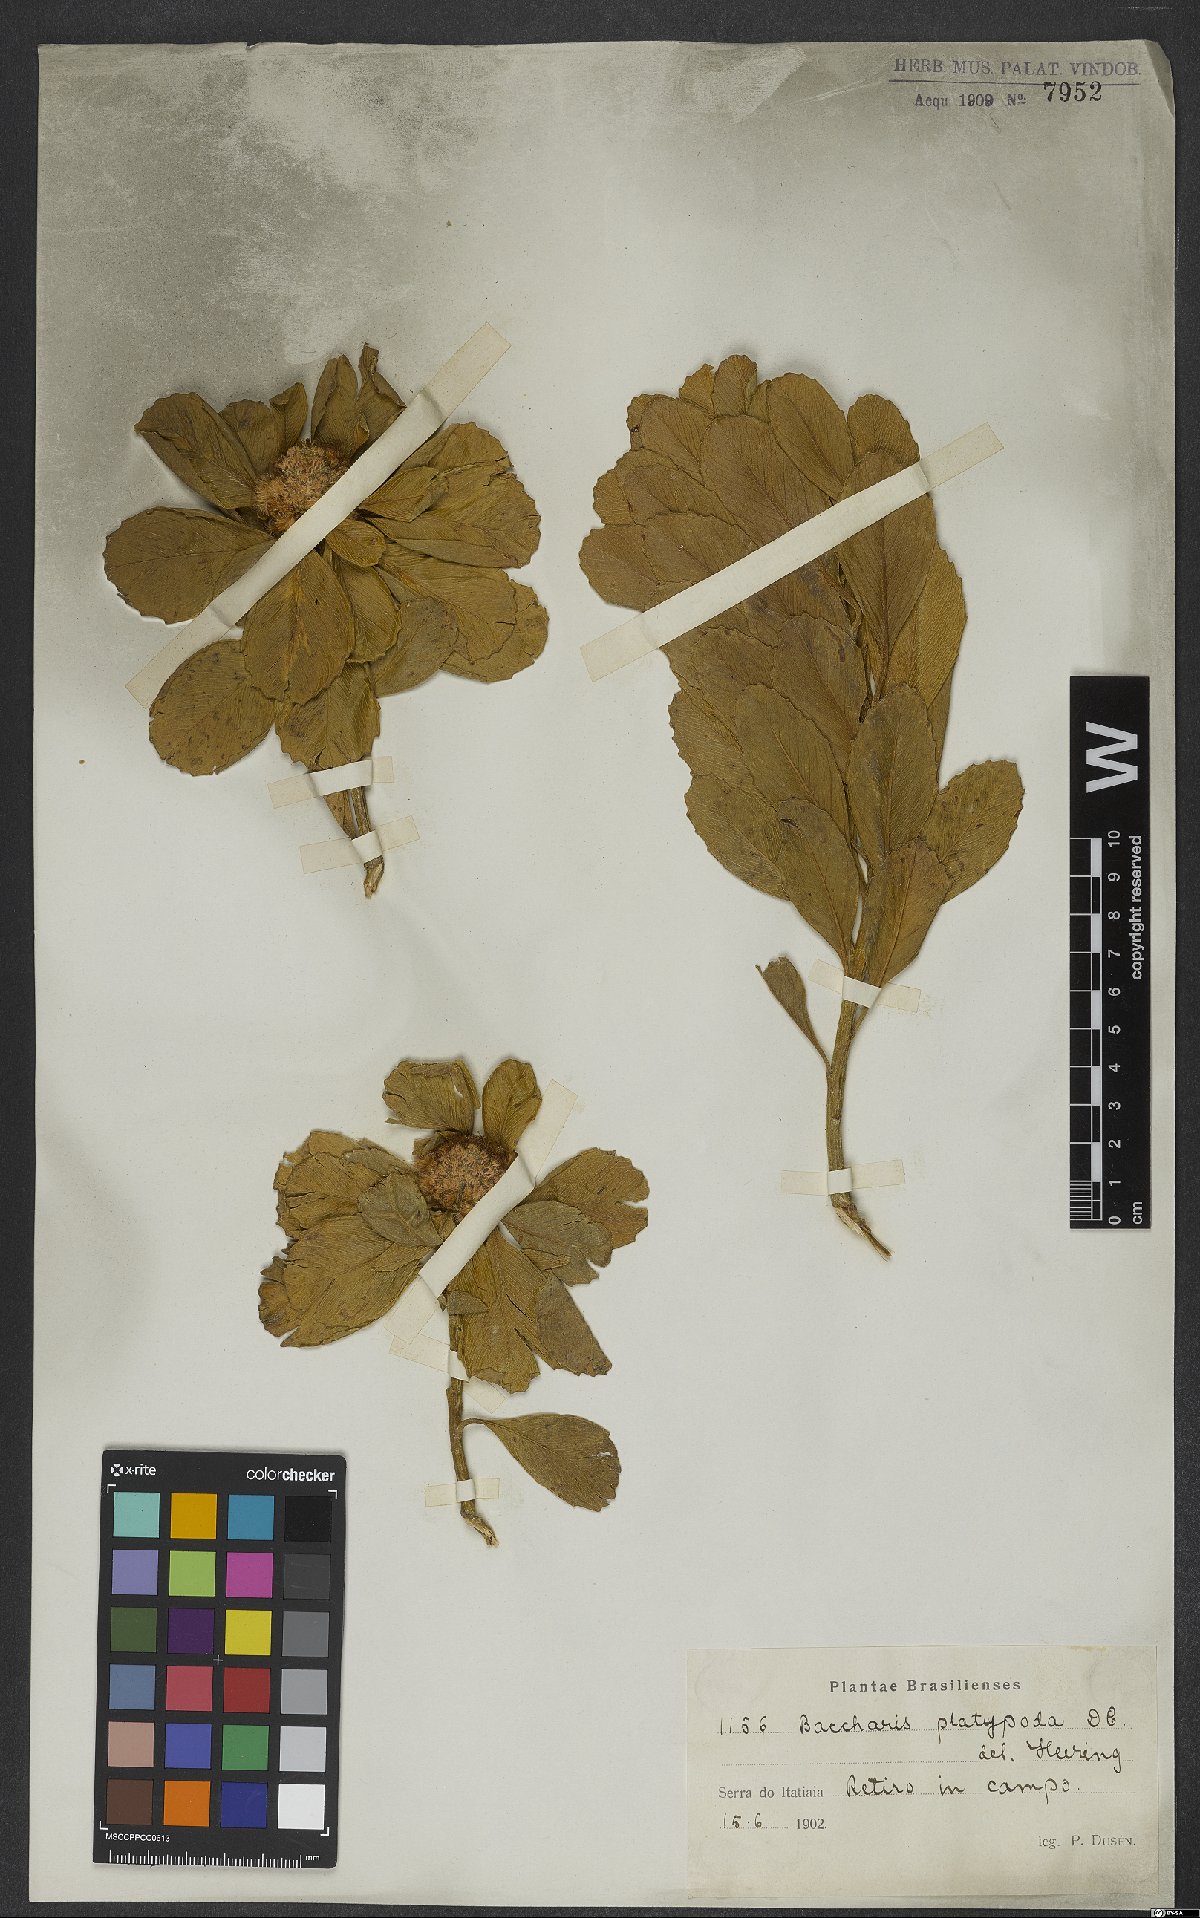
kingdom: Plantae
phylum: Tracheophyta
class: Magnoliopsida
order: Asterales
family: Asteraceae
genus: Baccharis
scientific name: Baccharis platypoda
